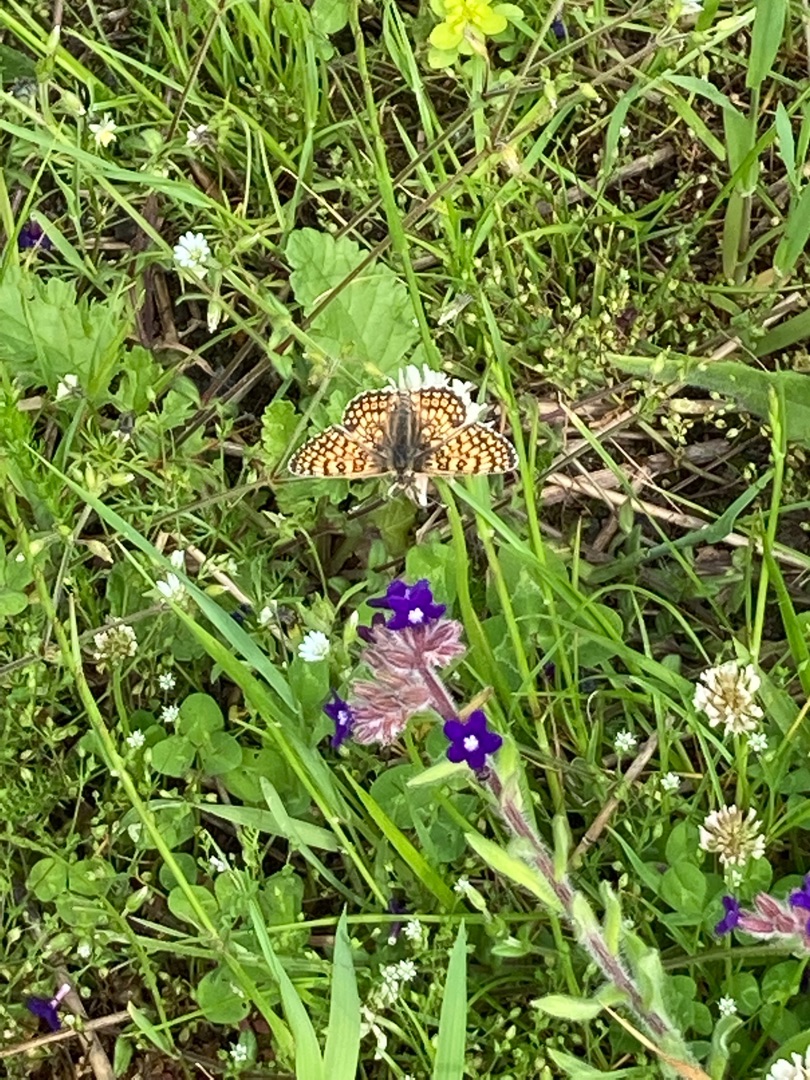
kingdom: Animalia
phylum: Arthropoda
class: Insecta
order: Lepidoptera
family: Nymphalidae
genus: Melitaea
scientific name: Melitaea cinxia
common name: Okkergul pletvinge
